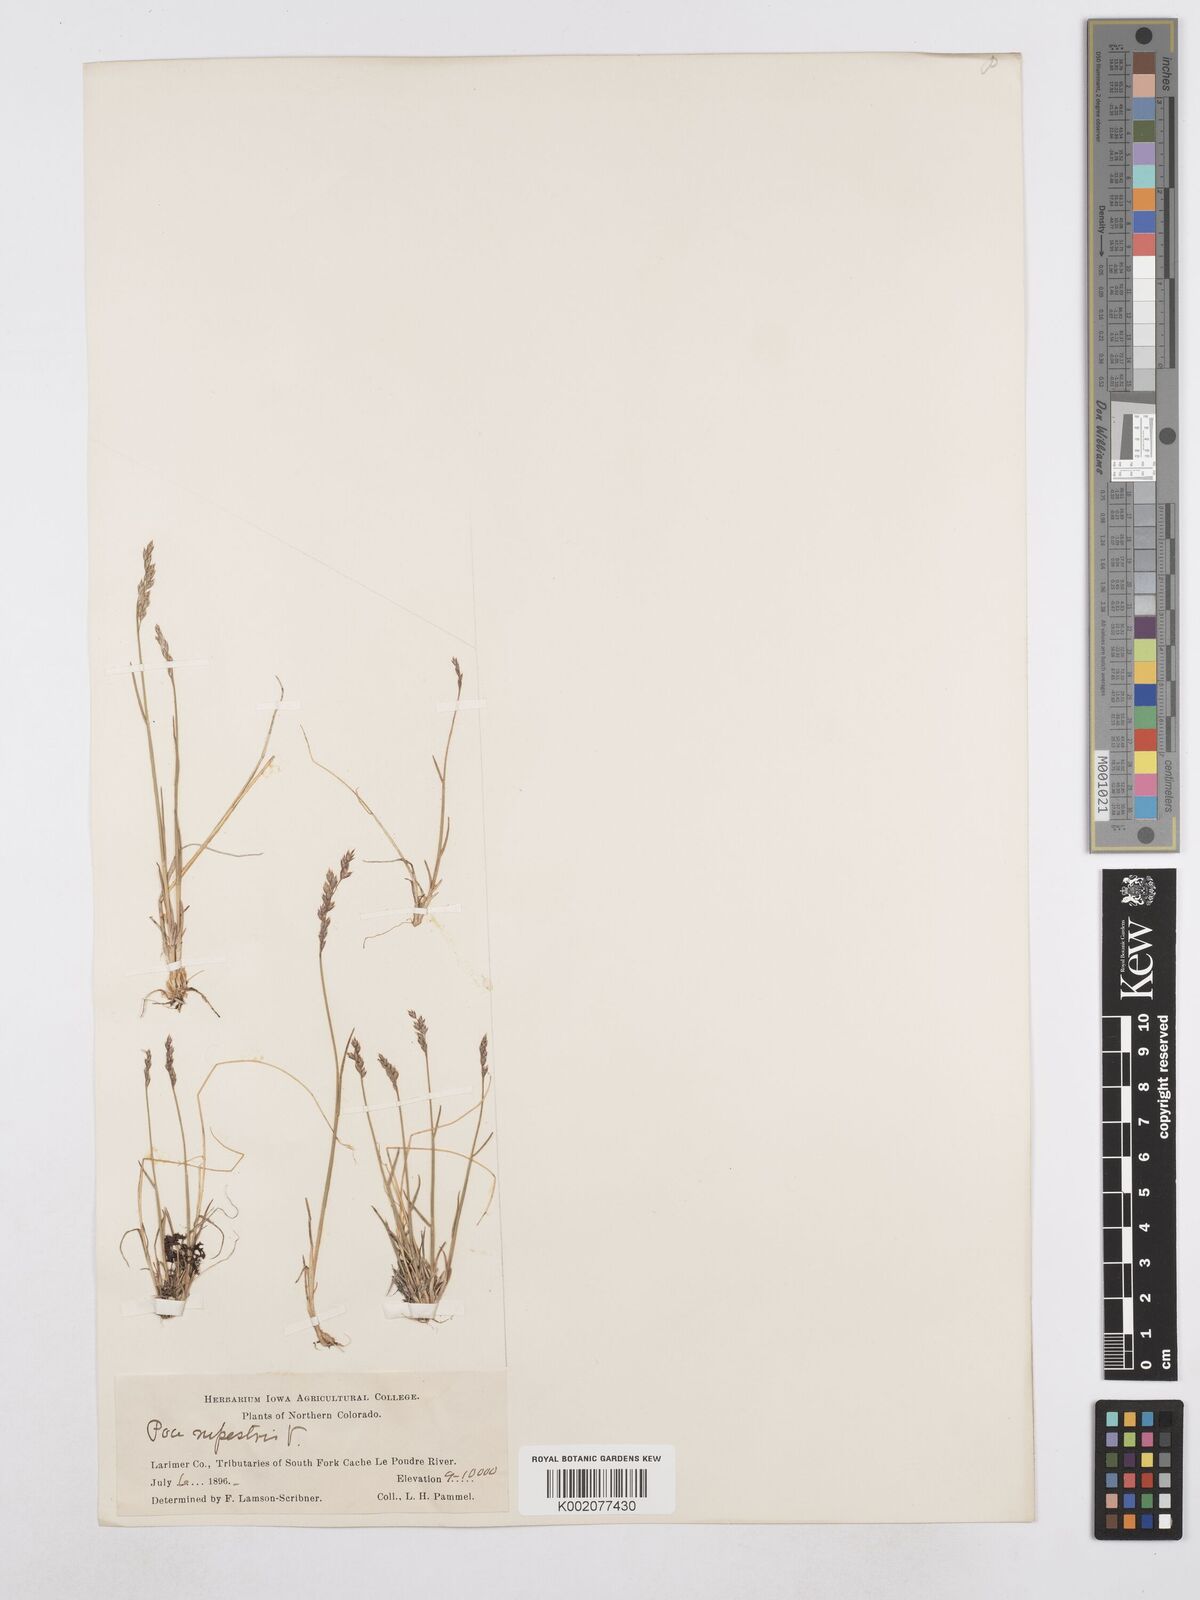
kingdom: Plantae
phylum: Tracheophyta
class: Liliopsida
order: Poales
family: Poaceae
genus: Poa
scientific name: Poa glauca
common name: Glaucous bluegrass
